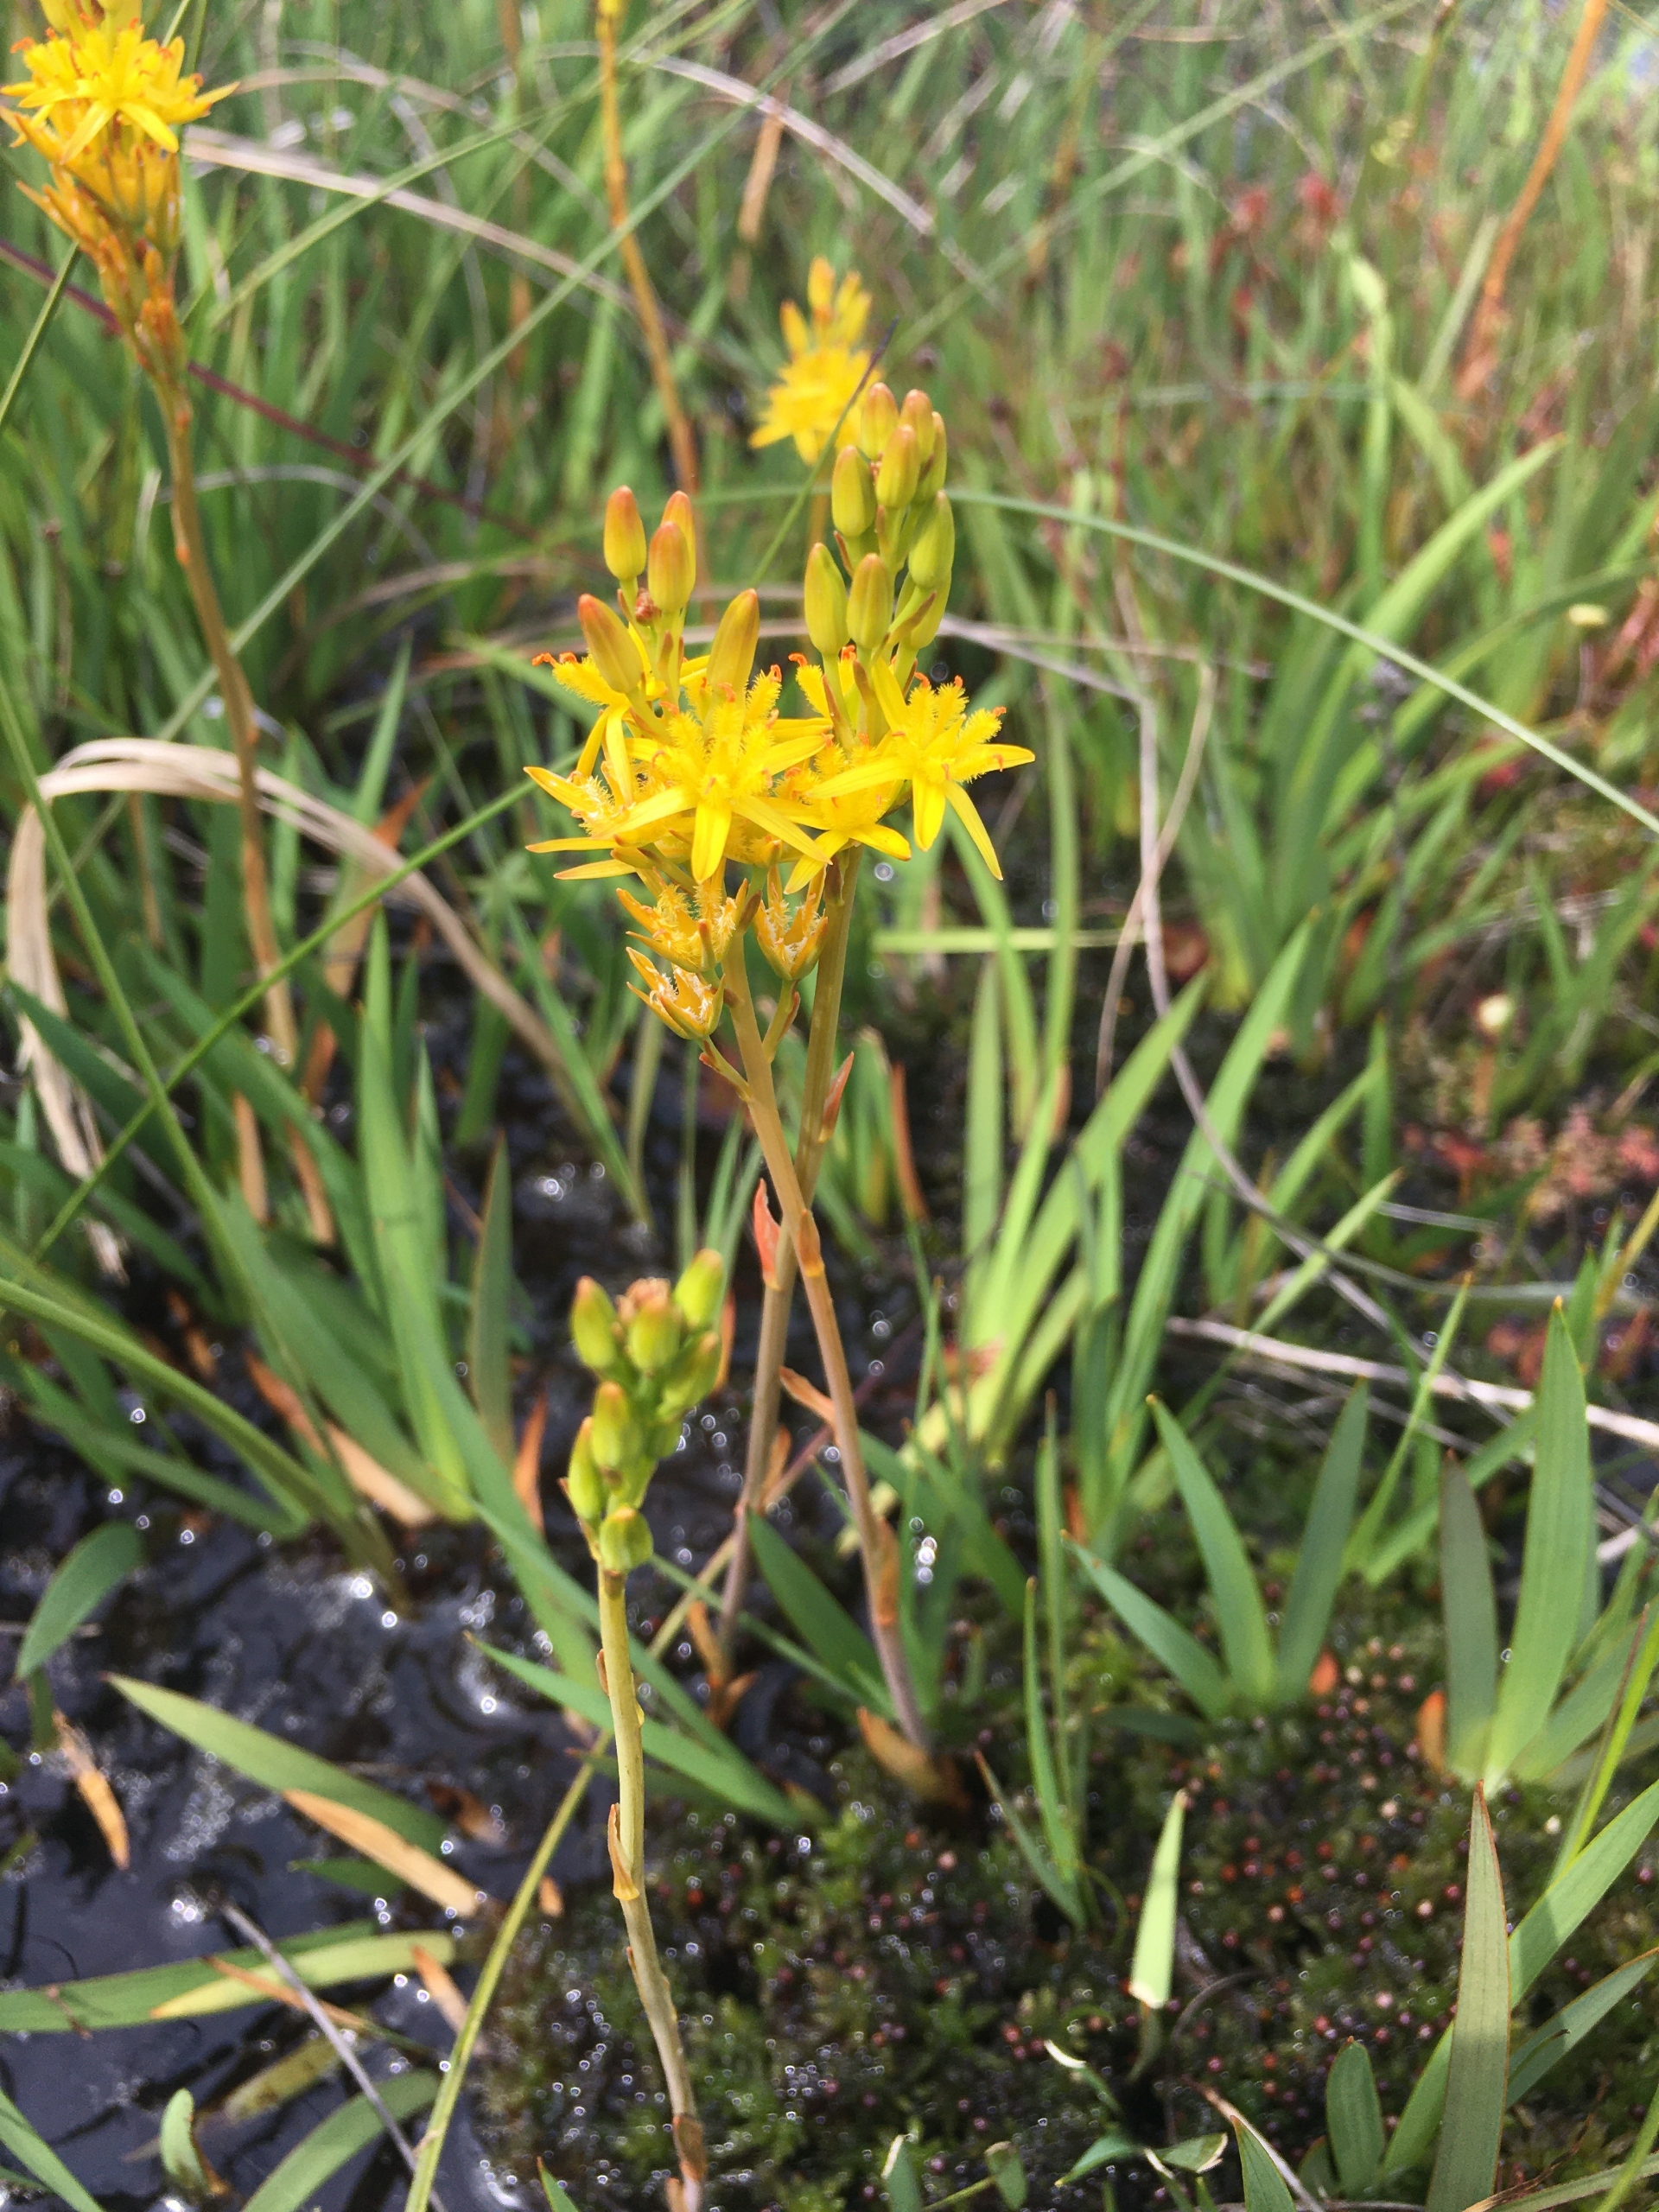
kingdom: Plantae
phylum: Tracheophyta
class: Liliopsida
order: Dioscoreales
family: Nartheciaceae
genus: Narthecium
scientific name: Narthecium ossifragum
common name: Benbræk
